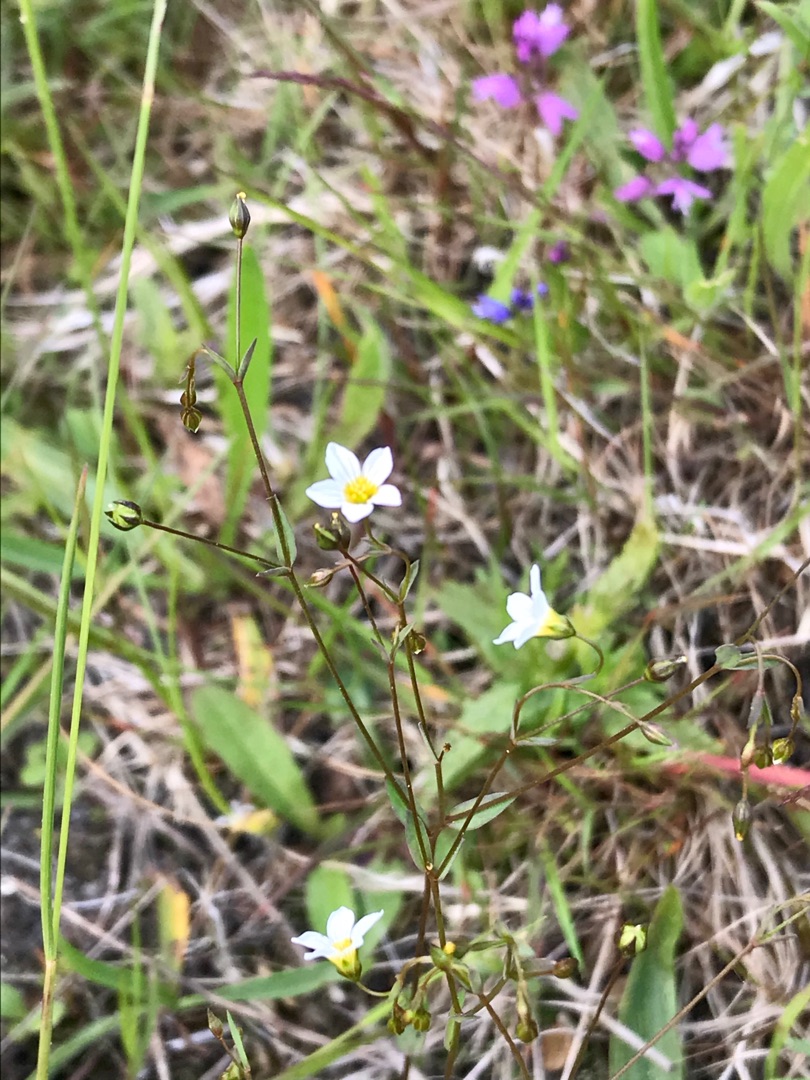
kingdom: Plantae
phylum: Tracheophyta
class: Magnoliopsida
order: Malpighiales
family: Linaceae
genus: Linum
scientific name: Linum catharticum
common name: Vild hør
